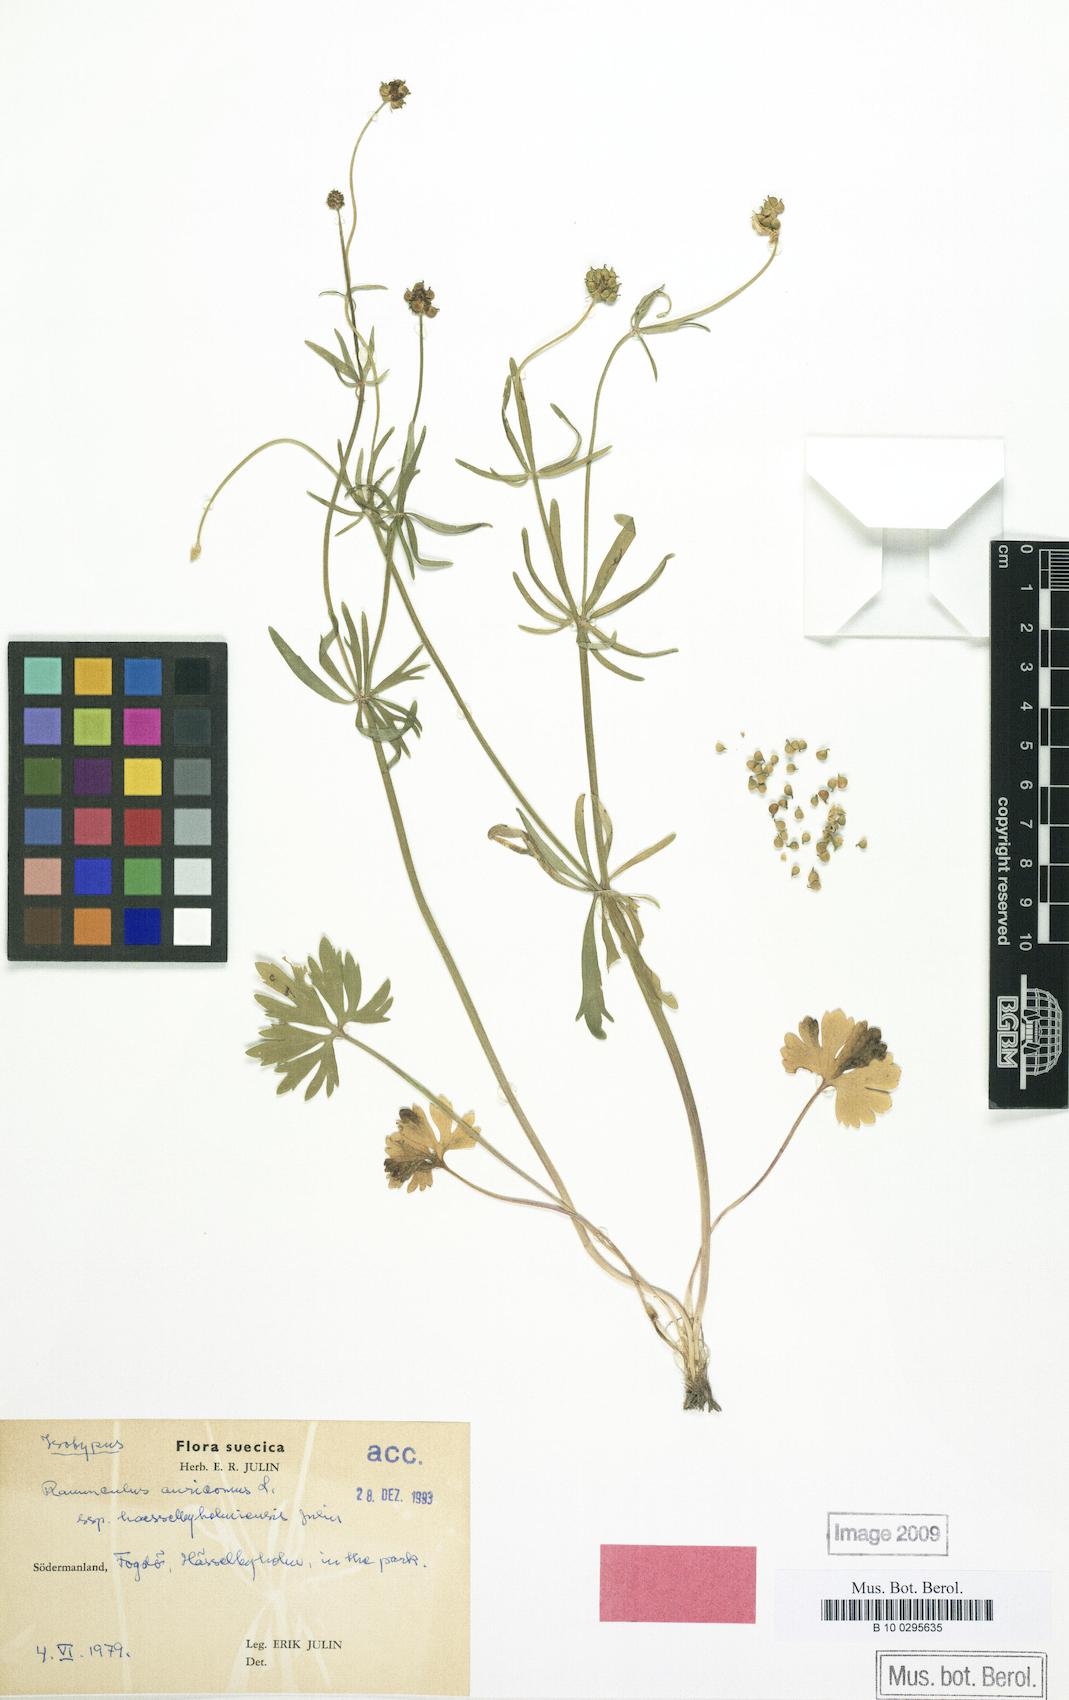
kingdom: Plantae
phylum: Tracheophyta
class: Magnoliopsida
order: Ranunculales
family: Ranunculaceae
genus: Ranunculus
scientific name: Ranunculus haesselbyholmiensis
